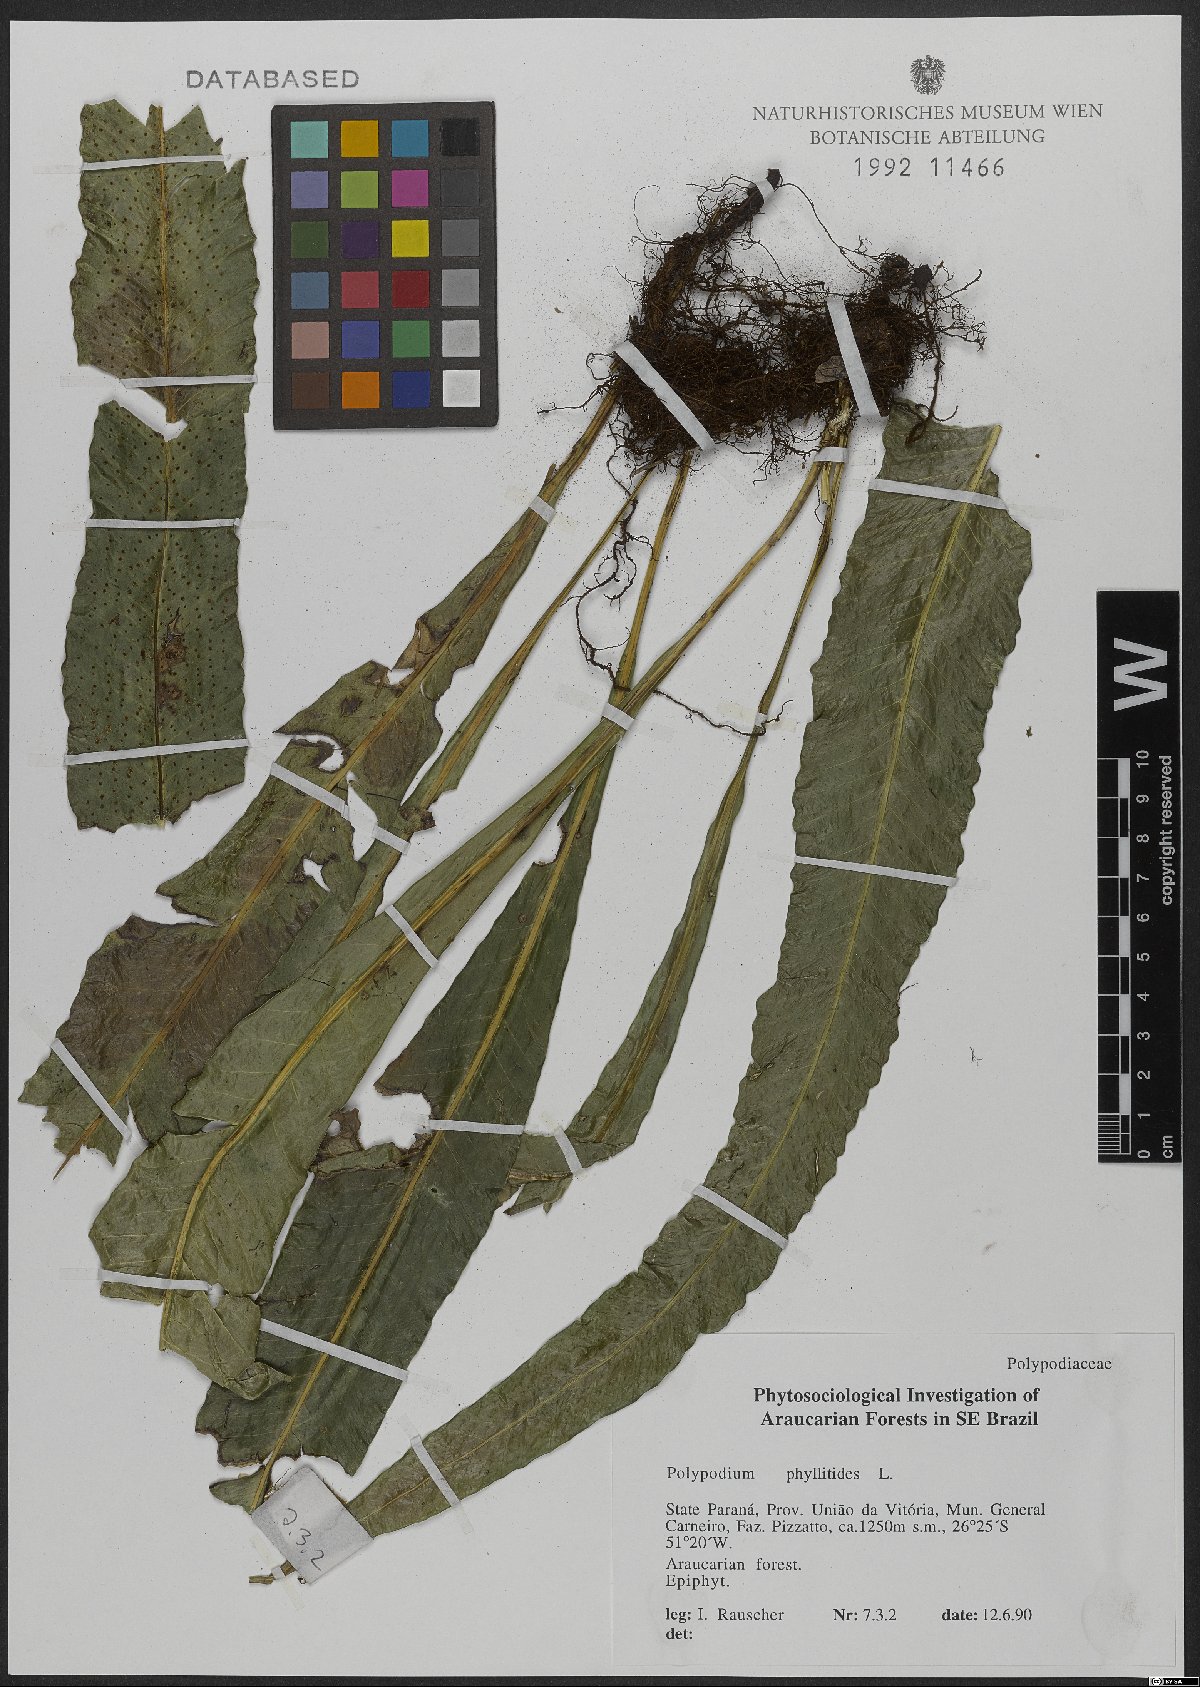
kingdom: Plantae
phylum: Tracheophyta
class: Polypodiopsida
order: Polypodiales
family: Polypodiaceae
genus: Campyloneurum
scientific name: Campyloneurum phyllitidis
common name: Cow-tongue fern
